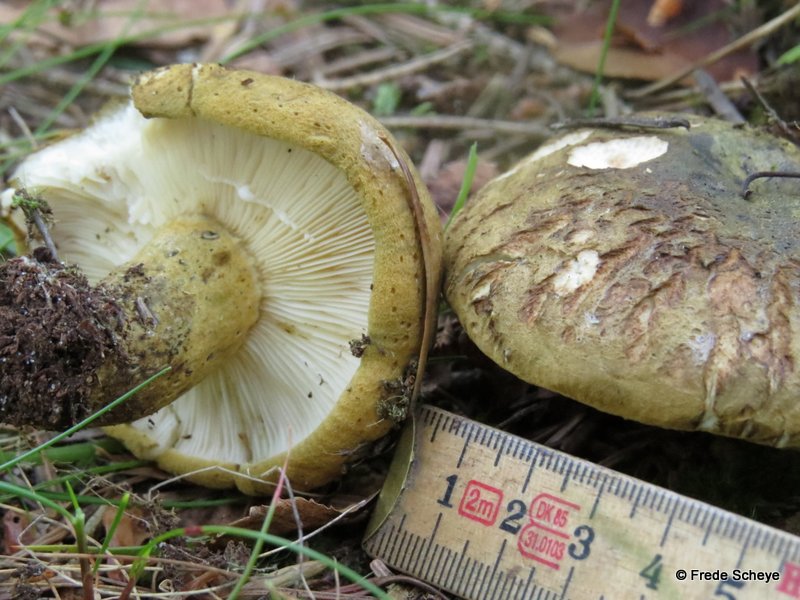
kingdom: Fungi
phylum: Basidiomycota
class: Agaricomycetes
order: Russulales
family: Russulaceae
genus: Lactarius
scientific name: Lactarius necator
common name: manddraber-mælkehat
